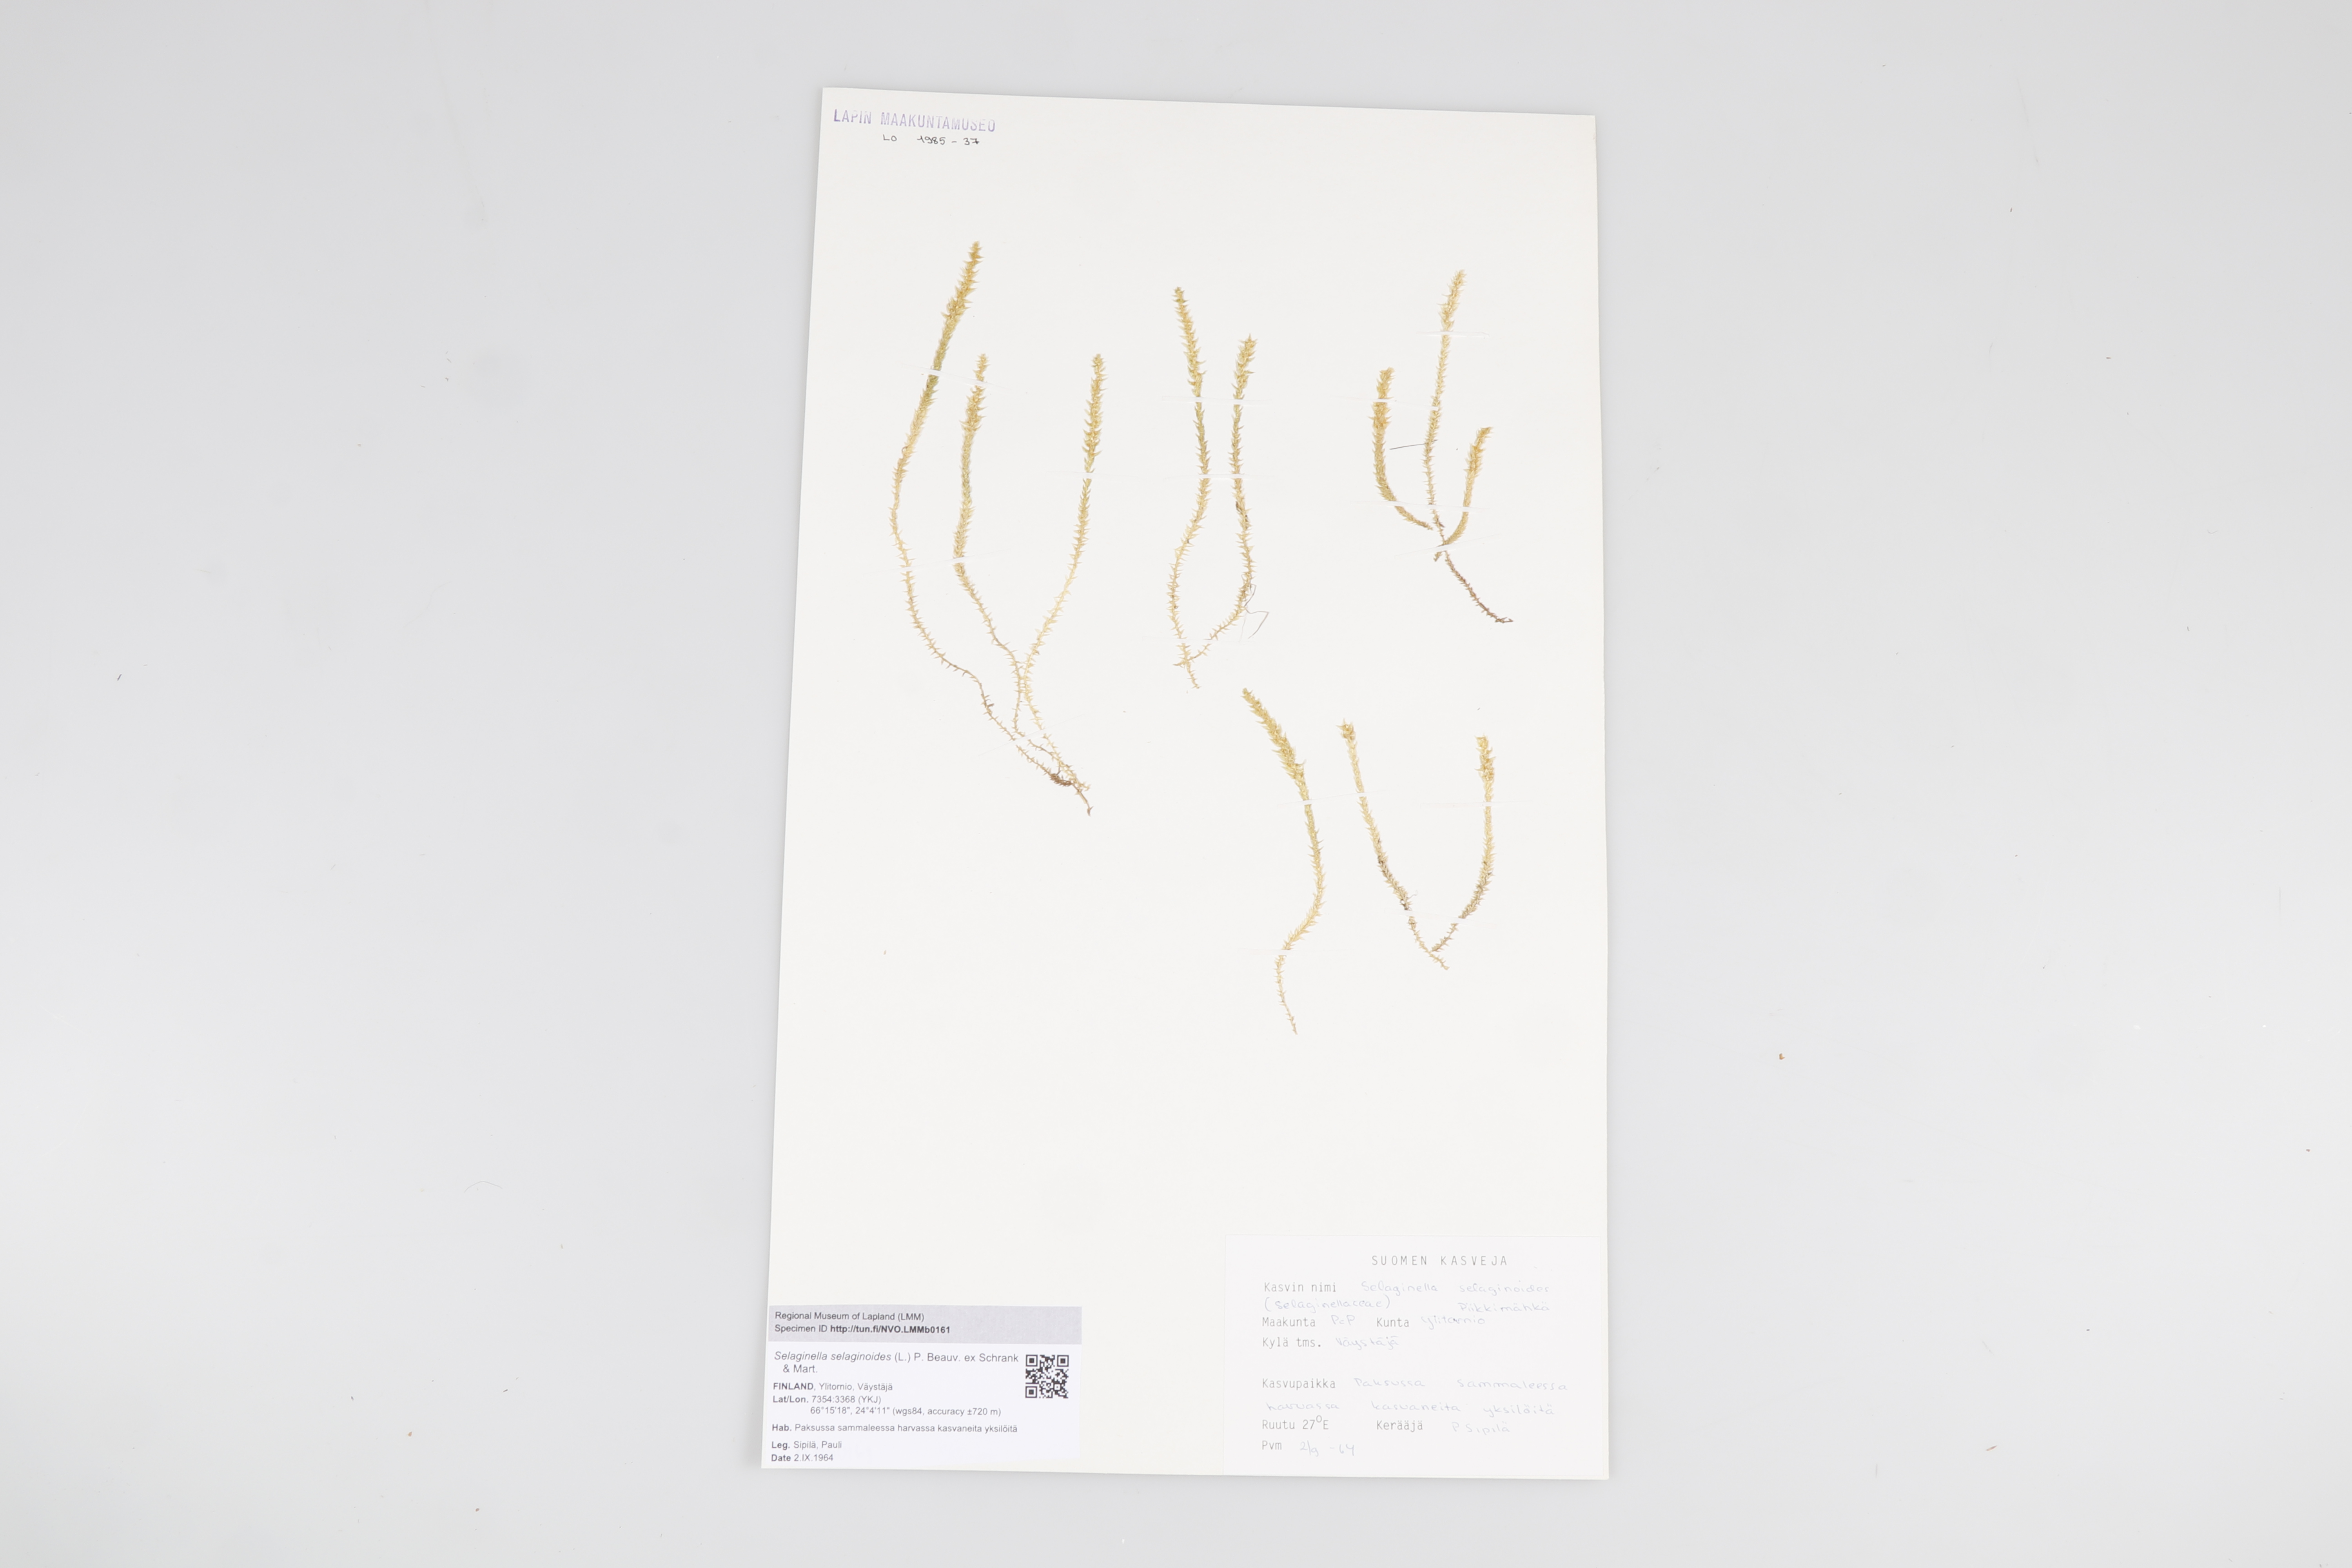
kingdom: Plantae
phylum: Tracheophyta
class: Lycopodiopsida
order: Selaginellales
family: Selaginellaceae
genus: Selaginella
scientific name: Selaginella selaginoides
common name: Prickly mountain-moss
